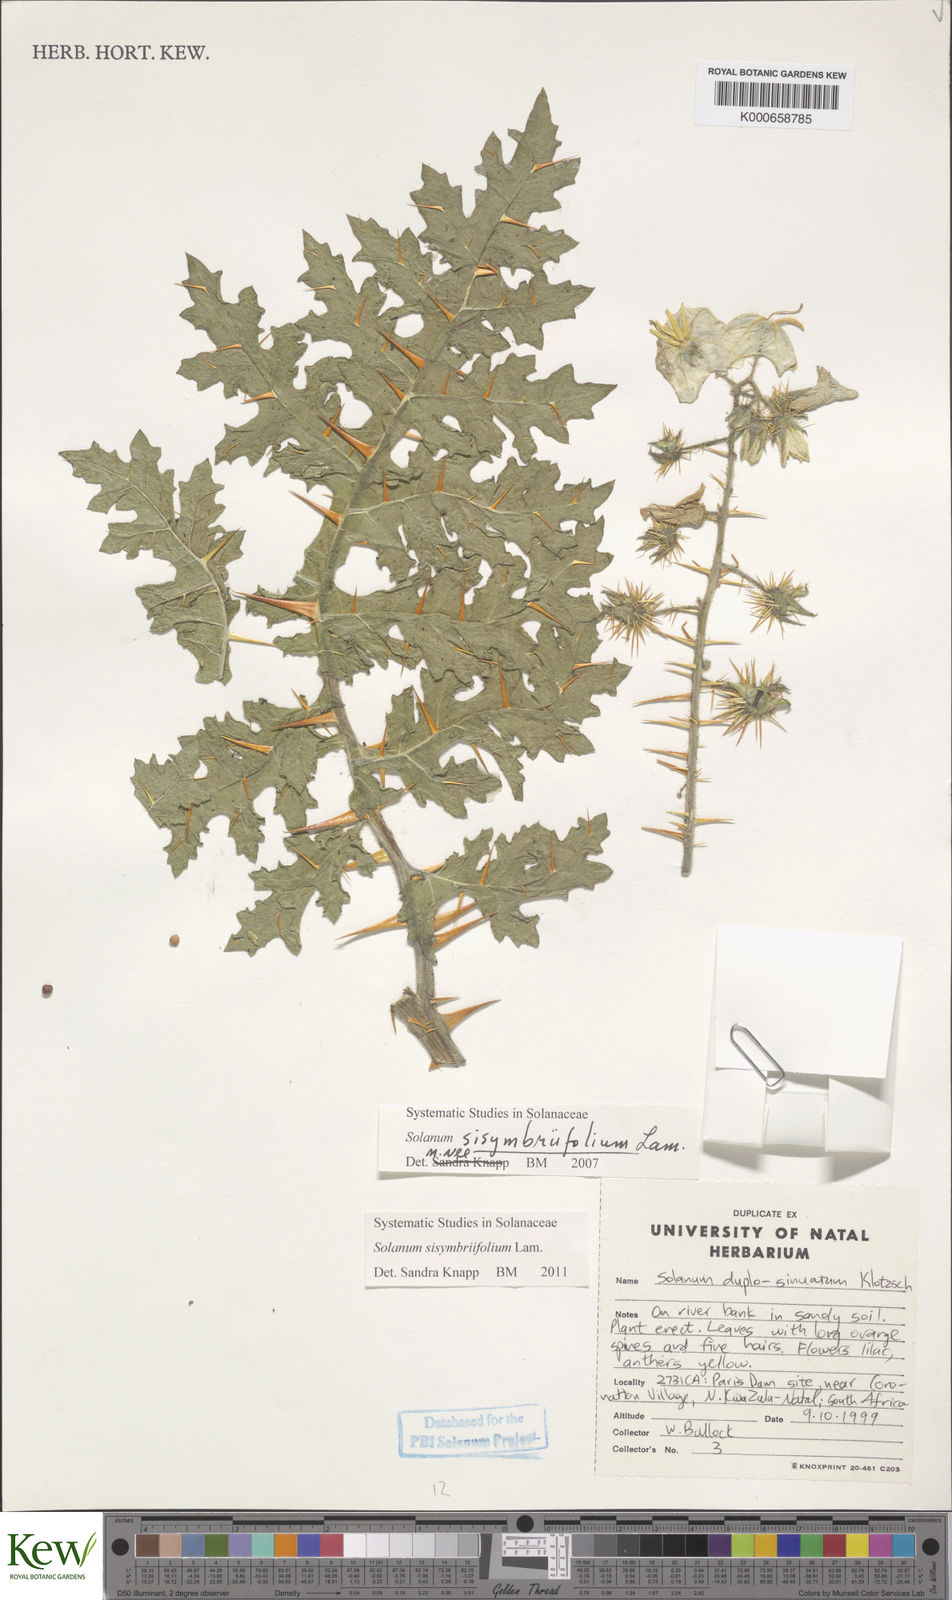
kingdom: Plantae
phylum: Tracheophyta
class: Magnoliopsida
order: Solanales
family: Solanaceae
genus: Solanum
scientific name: Solanum sisymbriifolium
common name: Red buffalo-bur
